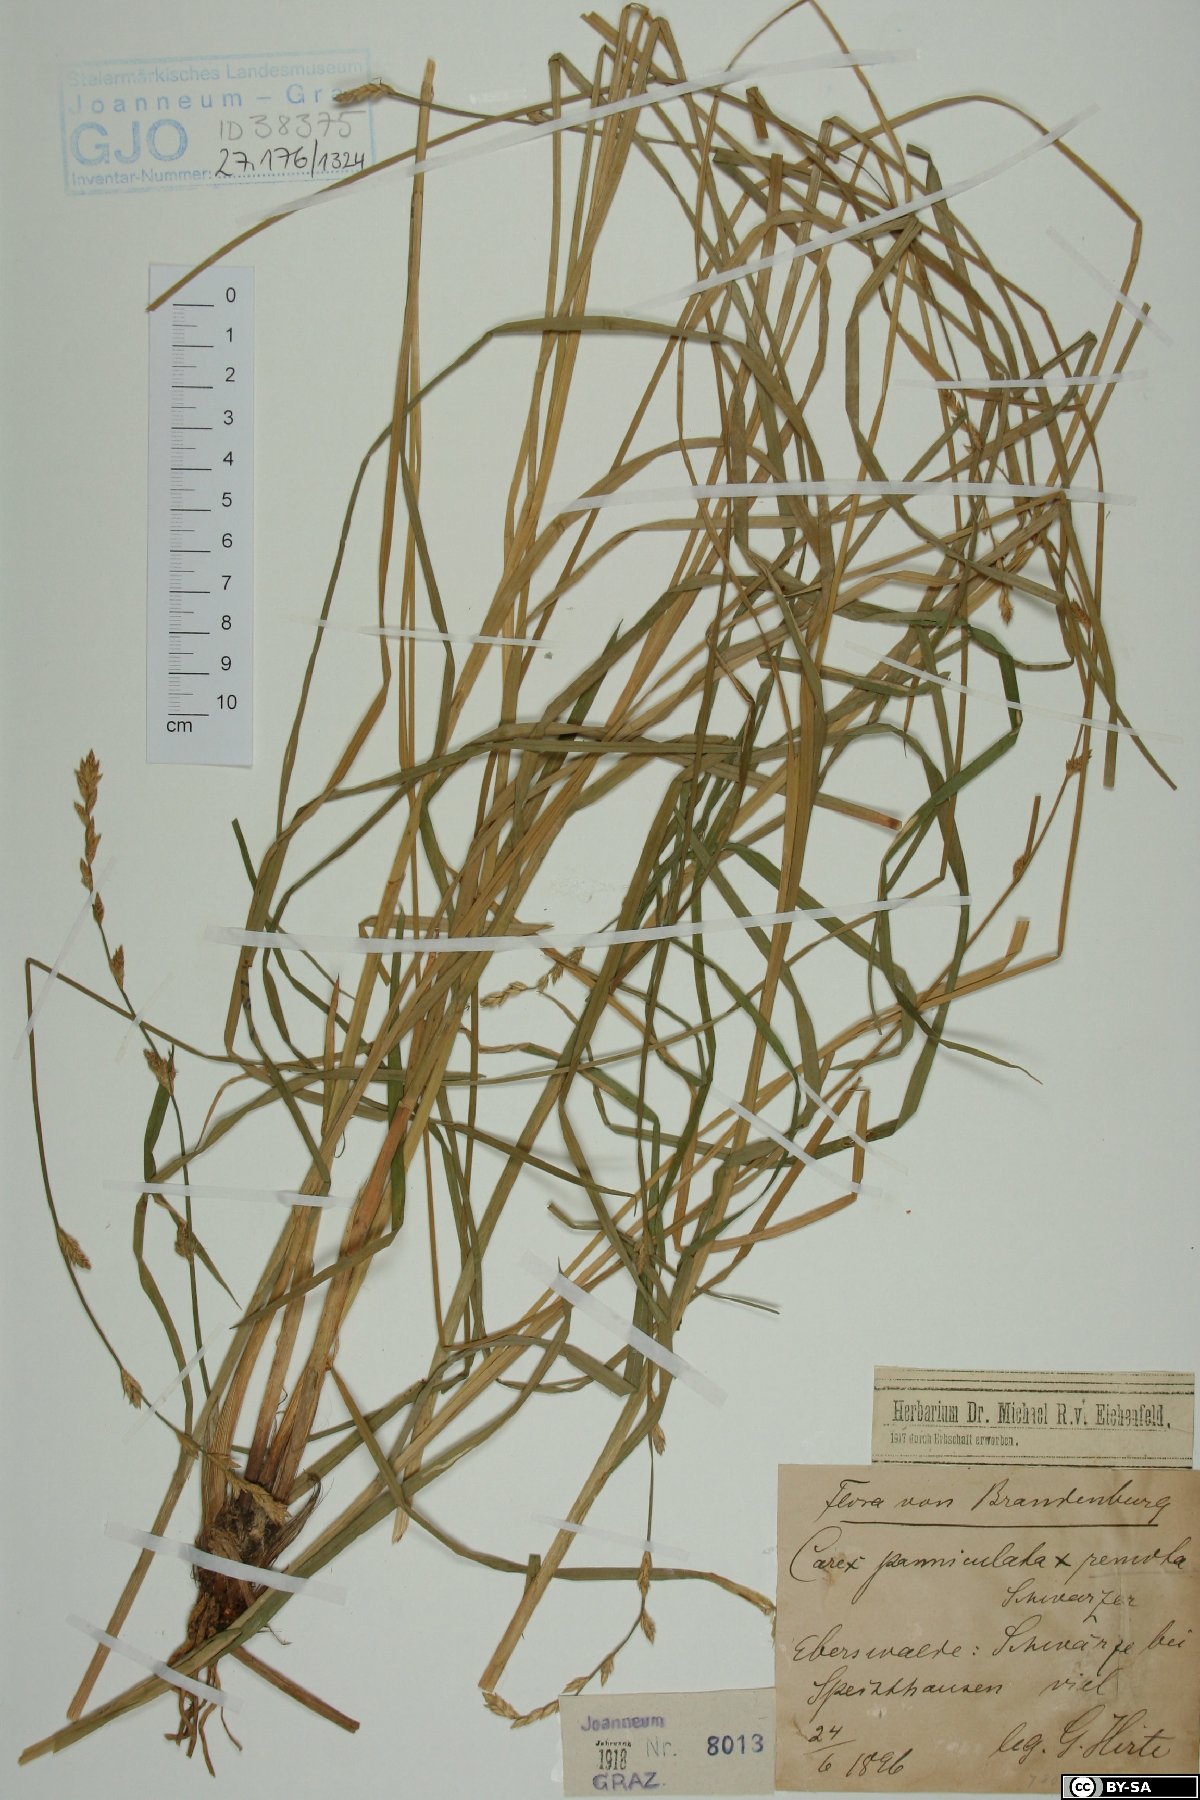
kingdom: Plantae
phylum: Tracheophyta
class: Liliopsida
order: Poales
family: Cyperaceae
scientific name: Cyperaceae
